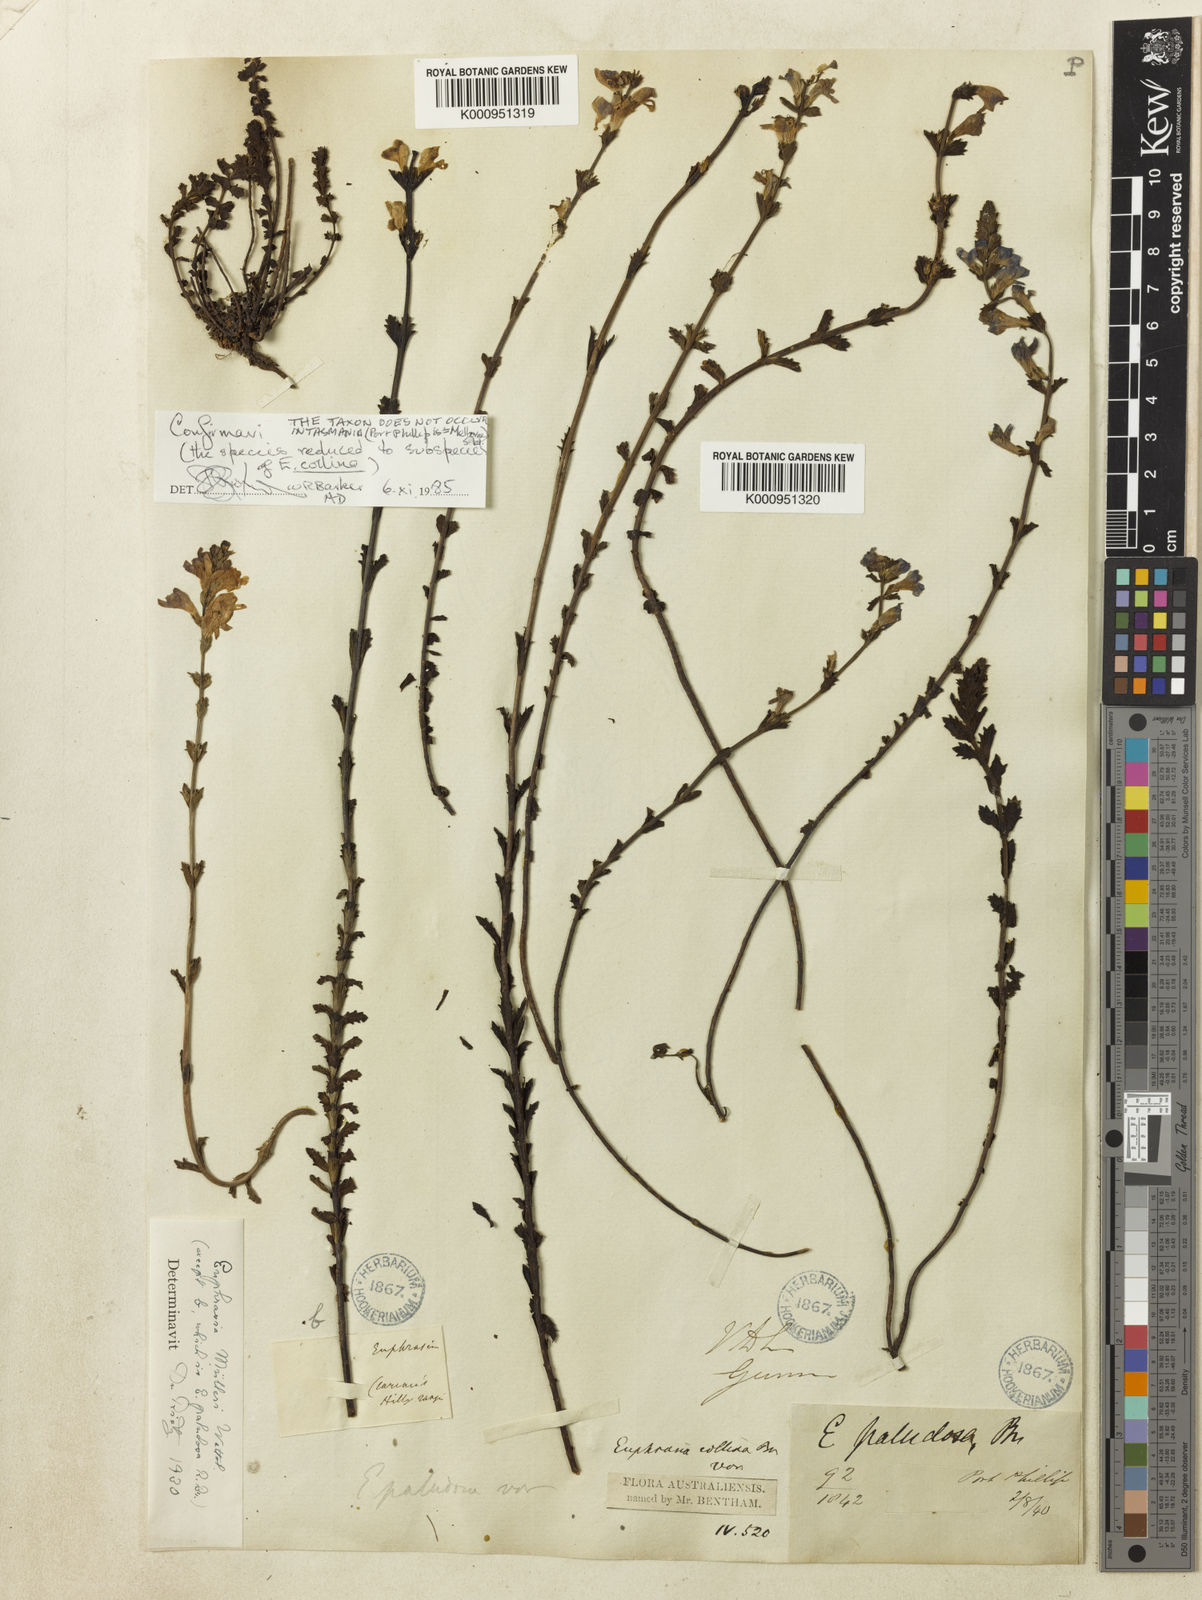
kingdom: Plantae
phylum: Tracheophyta
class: Magnoliopsida
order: Lamiales
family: Orobanchaceae
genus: Euphrasia
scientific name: Euphrasia collina
